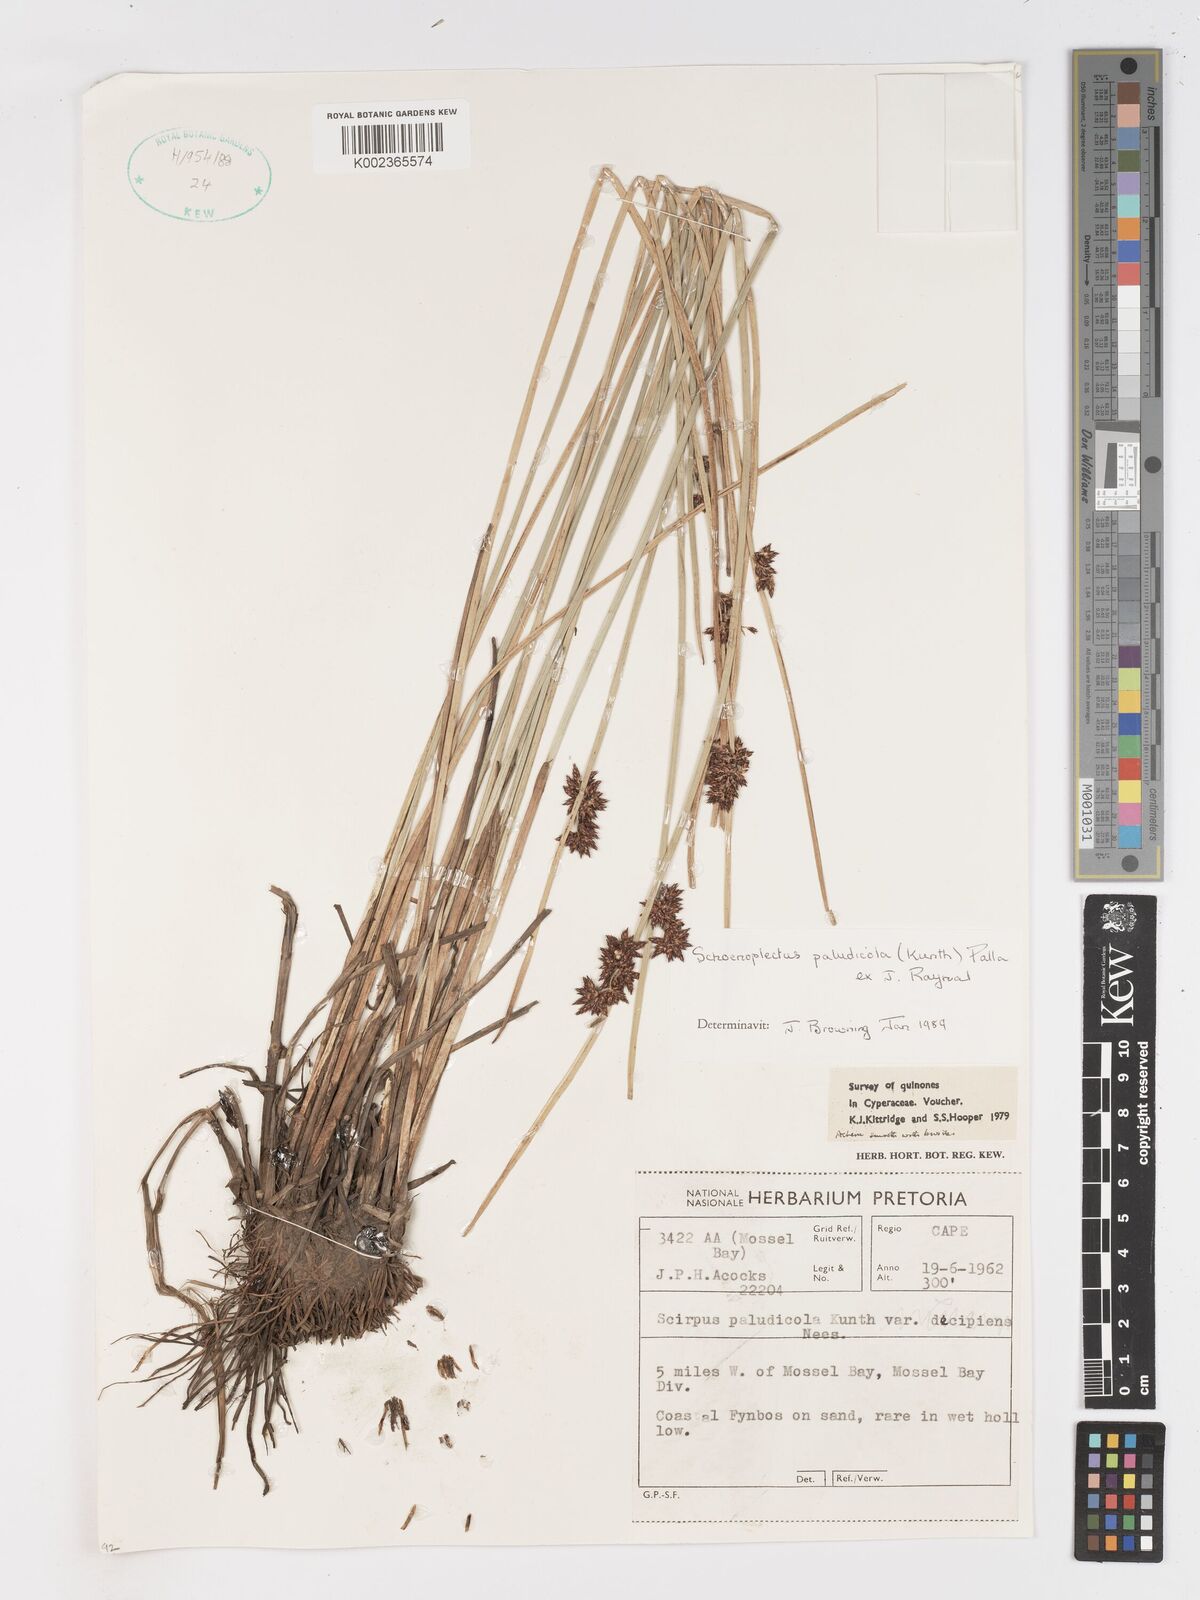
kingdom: Plantae
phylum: Tracheophyta
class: Liliopsida
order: Poales
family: Cyperaceae
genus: Schoenoplectiella
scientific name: Schoenoplectiella paludicola
